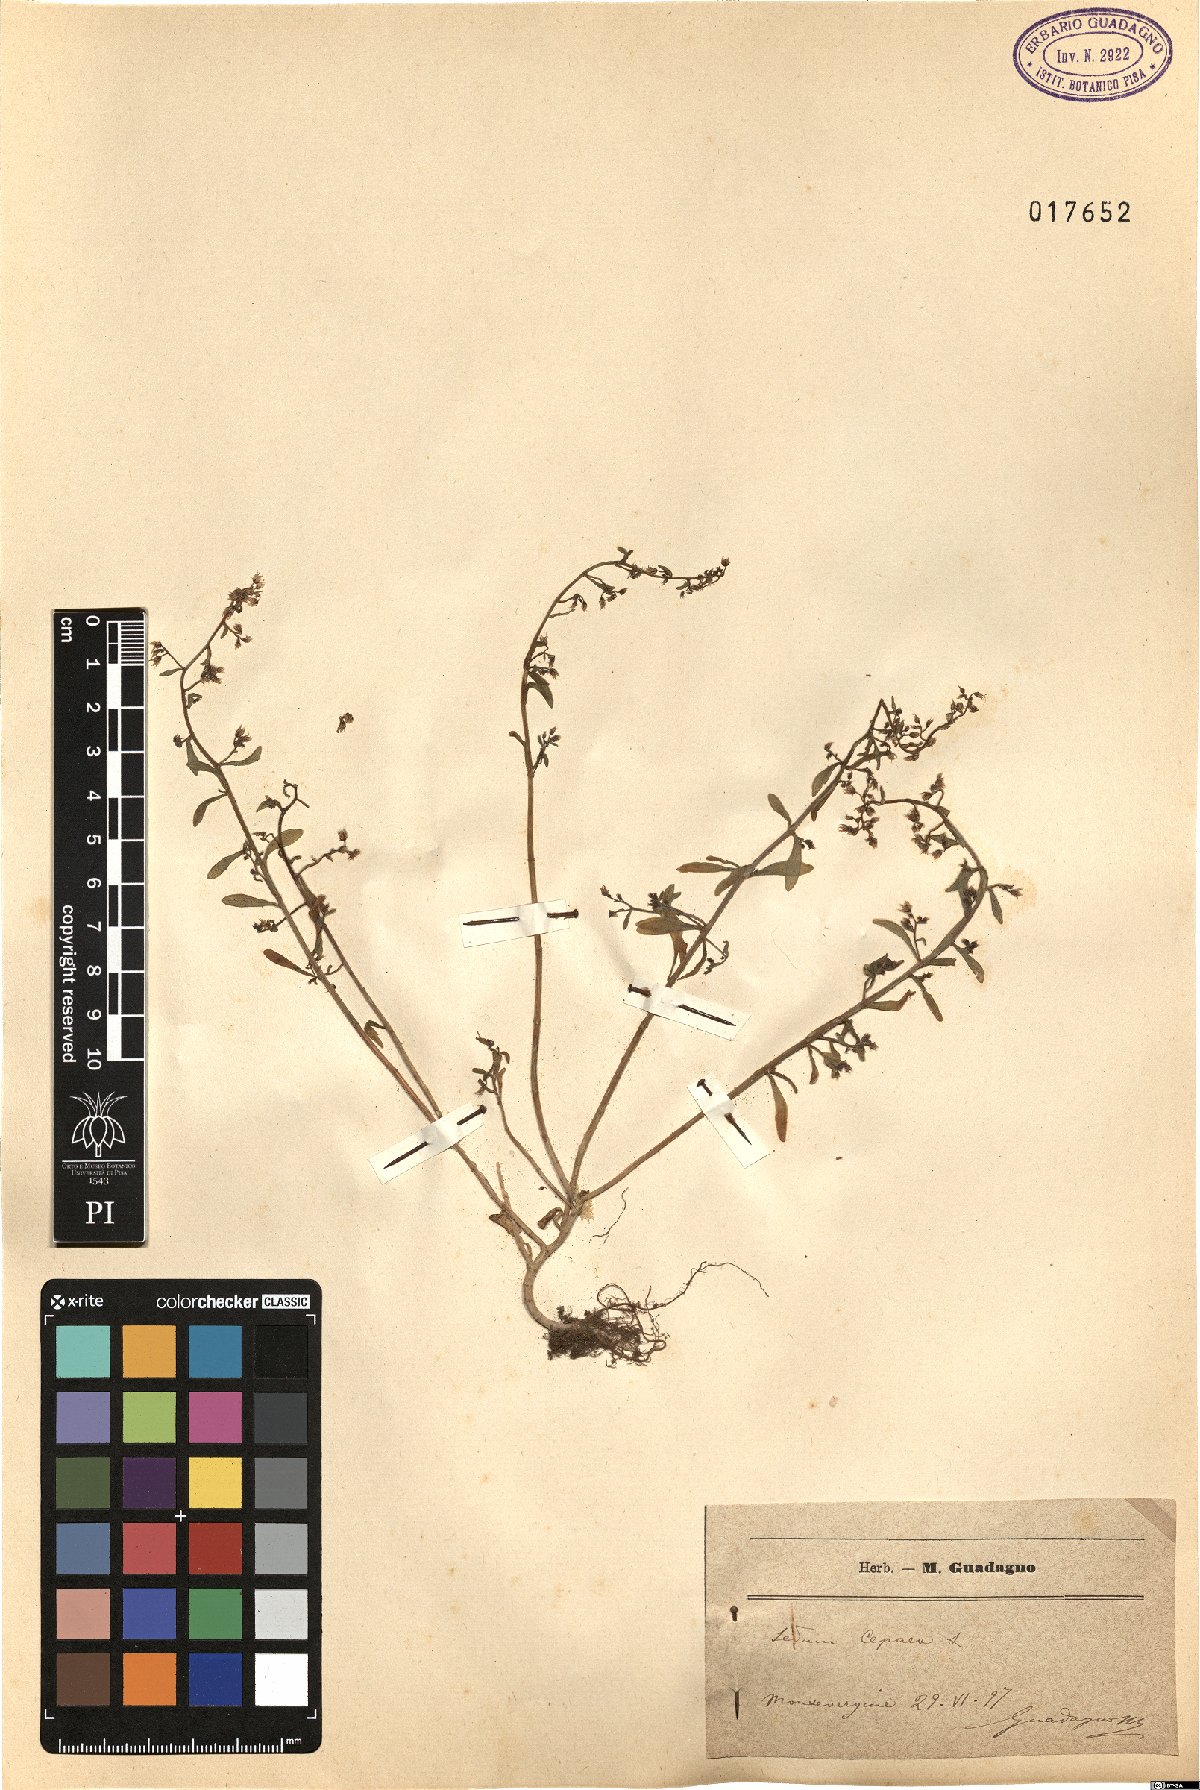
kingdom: Plantae
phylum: Tracheophyta
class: Magnoliopsida
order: Saxifragales
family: Crassulaceae
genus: Sedum
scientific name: Sedum cepaea
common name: Pink stonecrop
